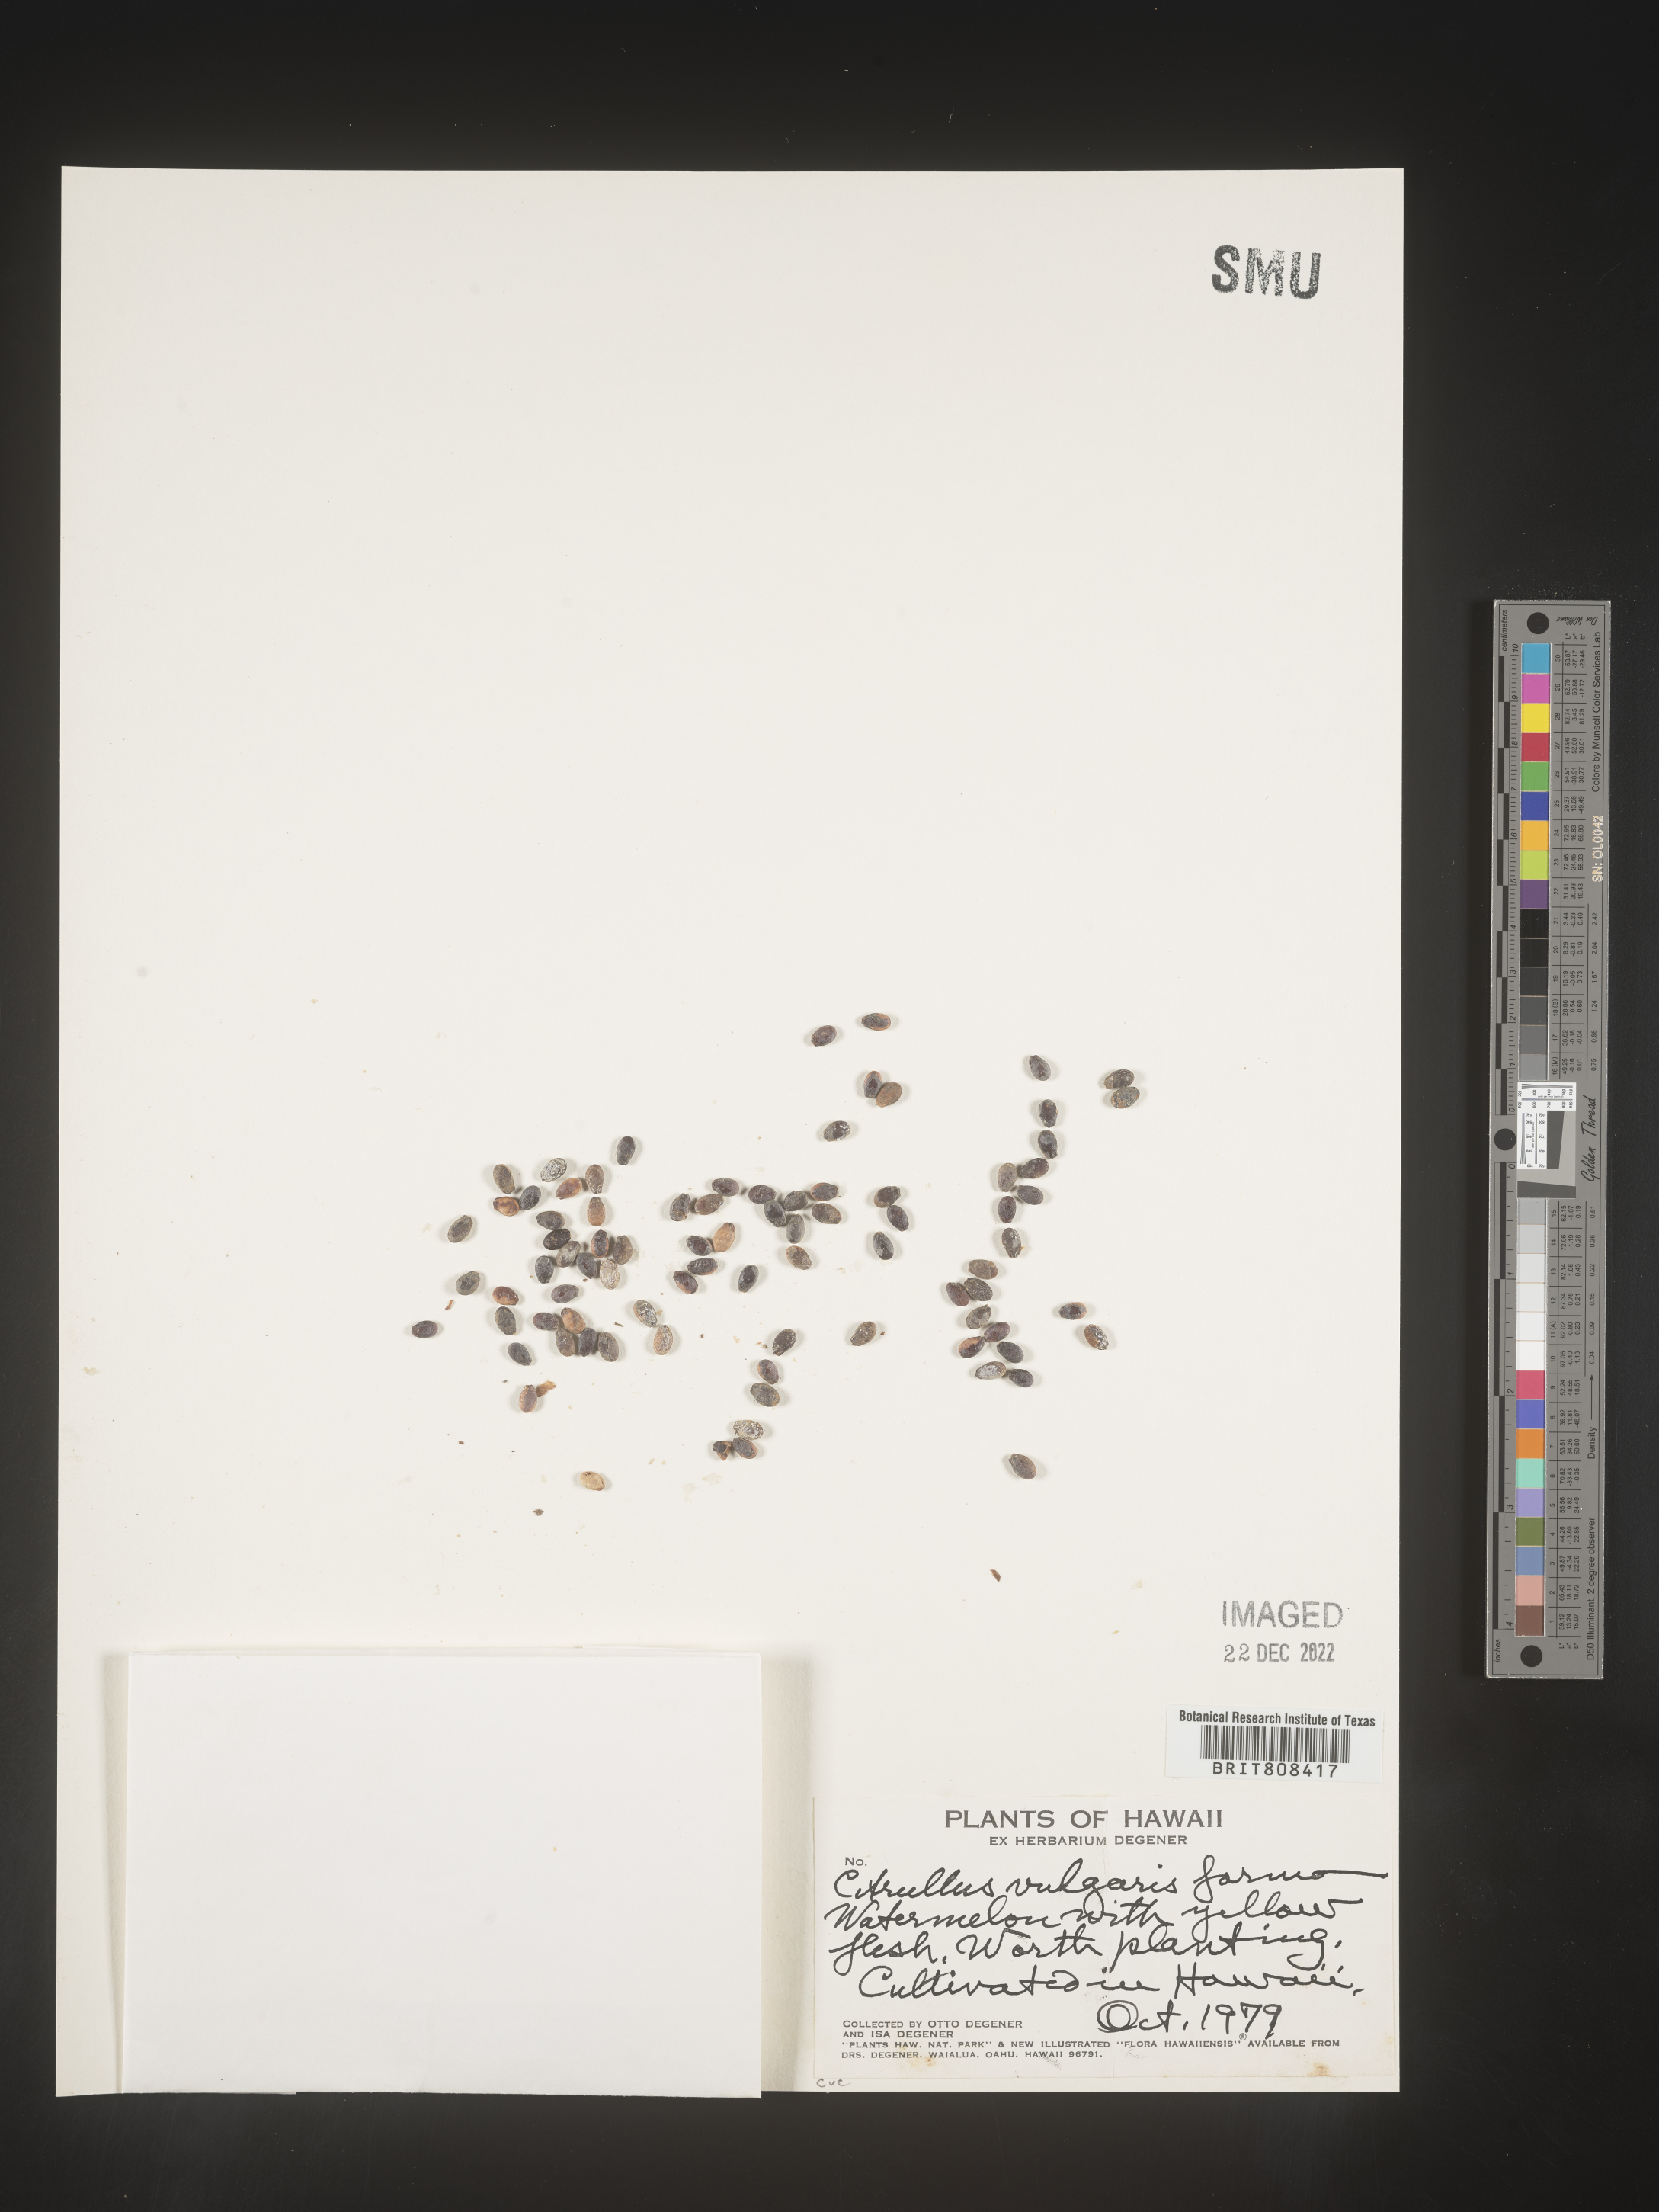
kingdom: Plantae
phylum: Tracheophyta
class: Magnoliopsida
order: Cucurbitales
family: Cucurbitaceae
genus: Citrullus
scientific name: Citrullus
